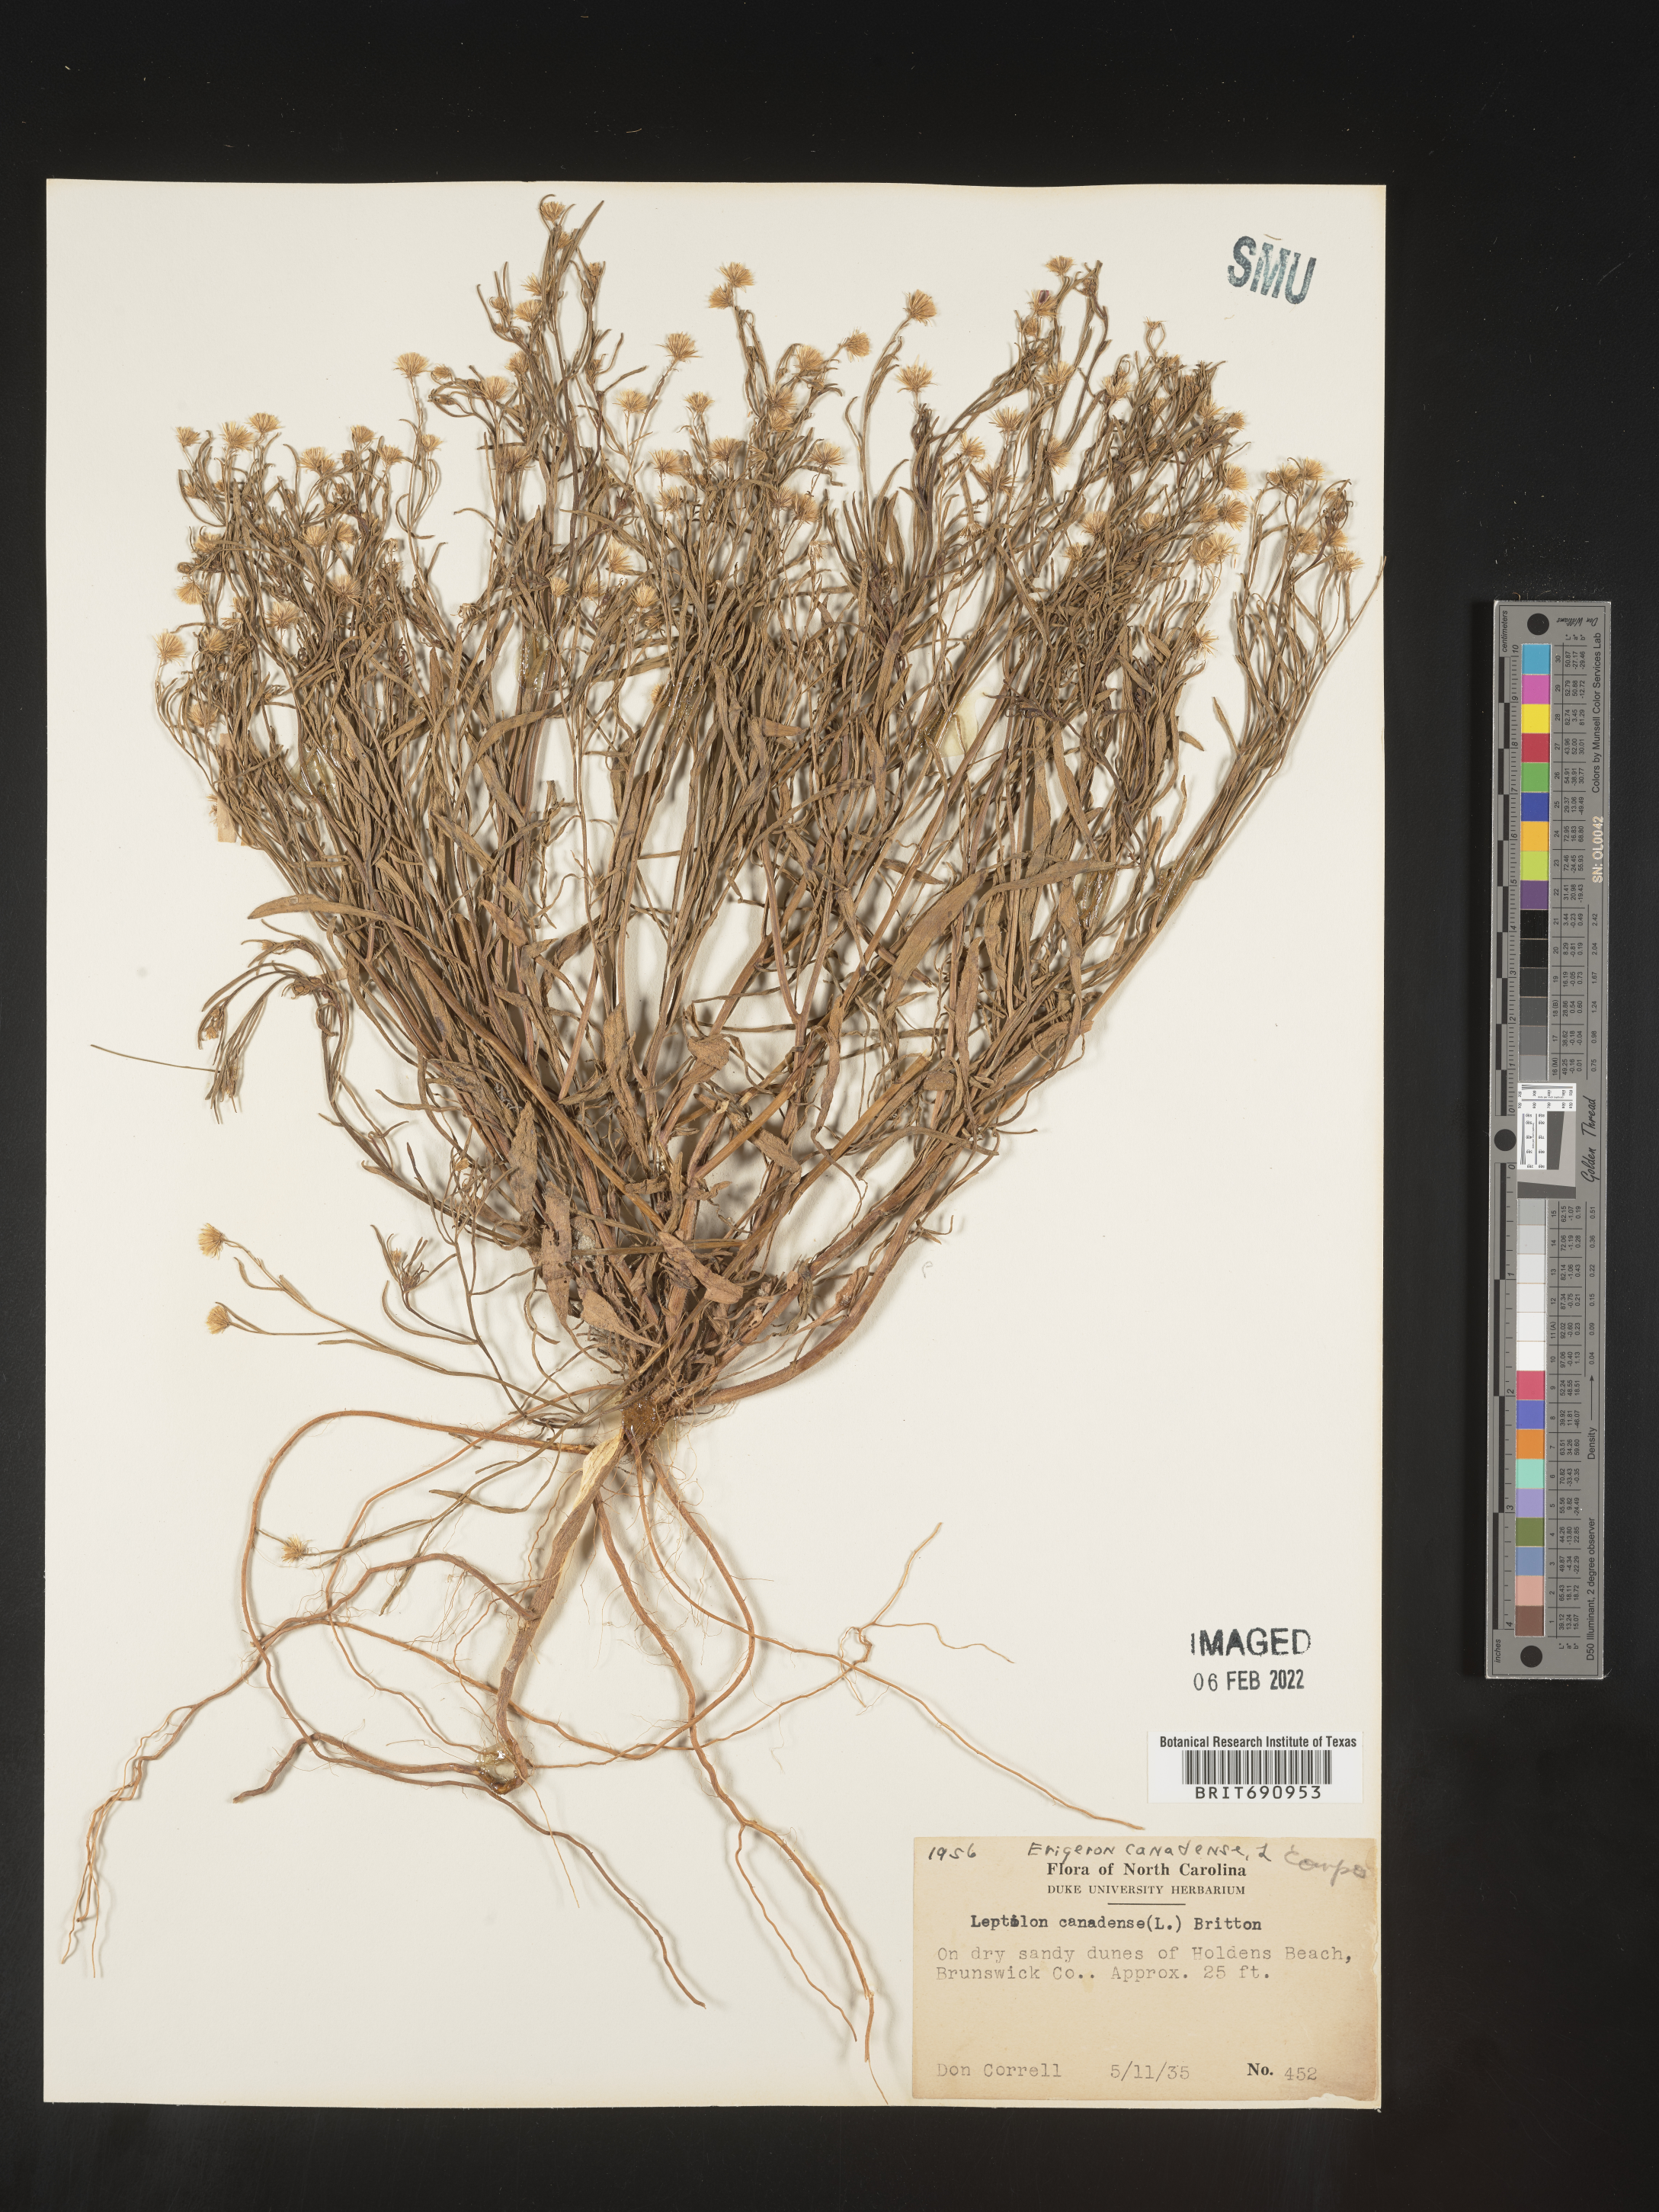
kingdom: Plantae
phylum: Tracheophyta
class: Magnoliopsida
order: Asterales
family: Asteraceae
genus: Erigeron
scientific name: Erigeron canadensis
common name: Canadian fleabane
